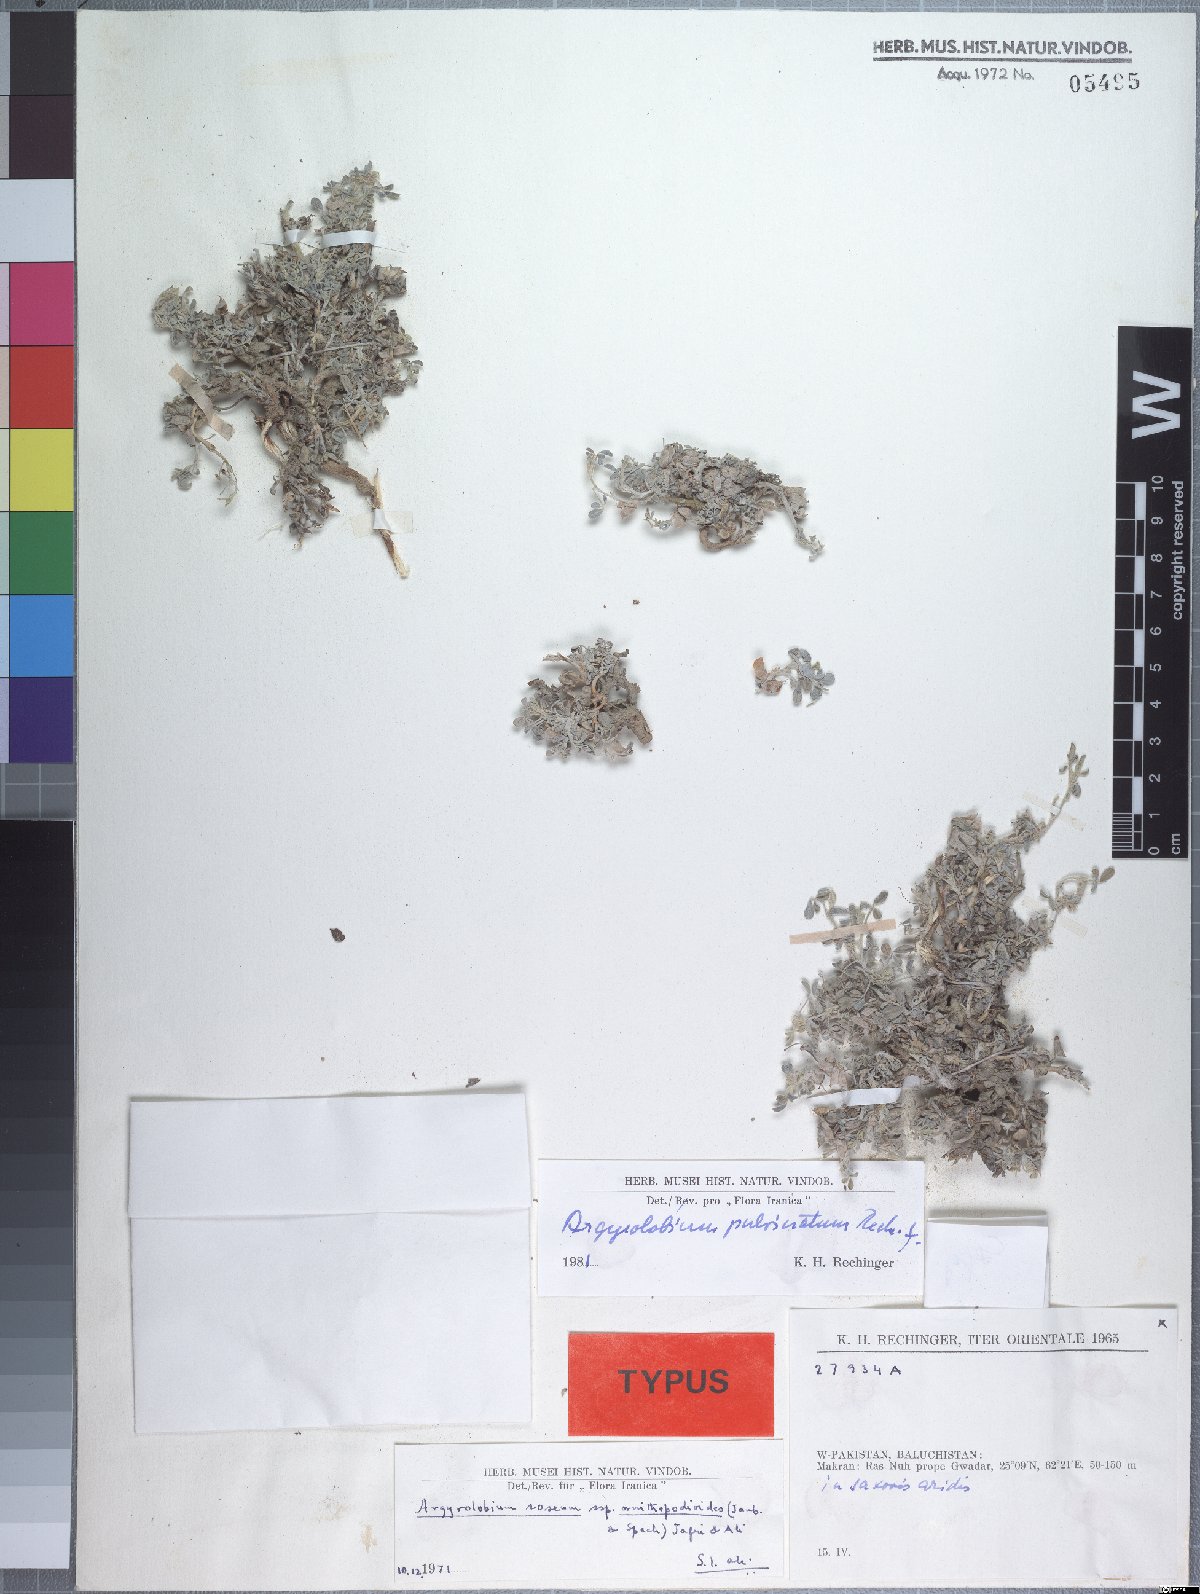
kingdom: Plantae
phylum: Tracheophyta
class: Magnoliopsida
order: Fabales
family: Fabaceae
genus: Argyrolobium
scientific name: Argyrolobium pulvinatum
